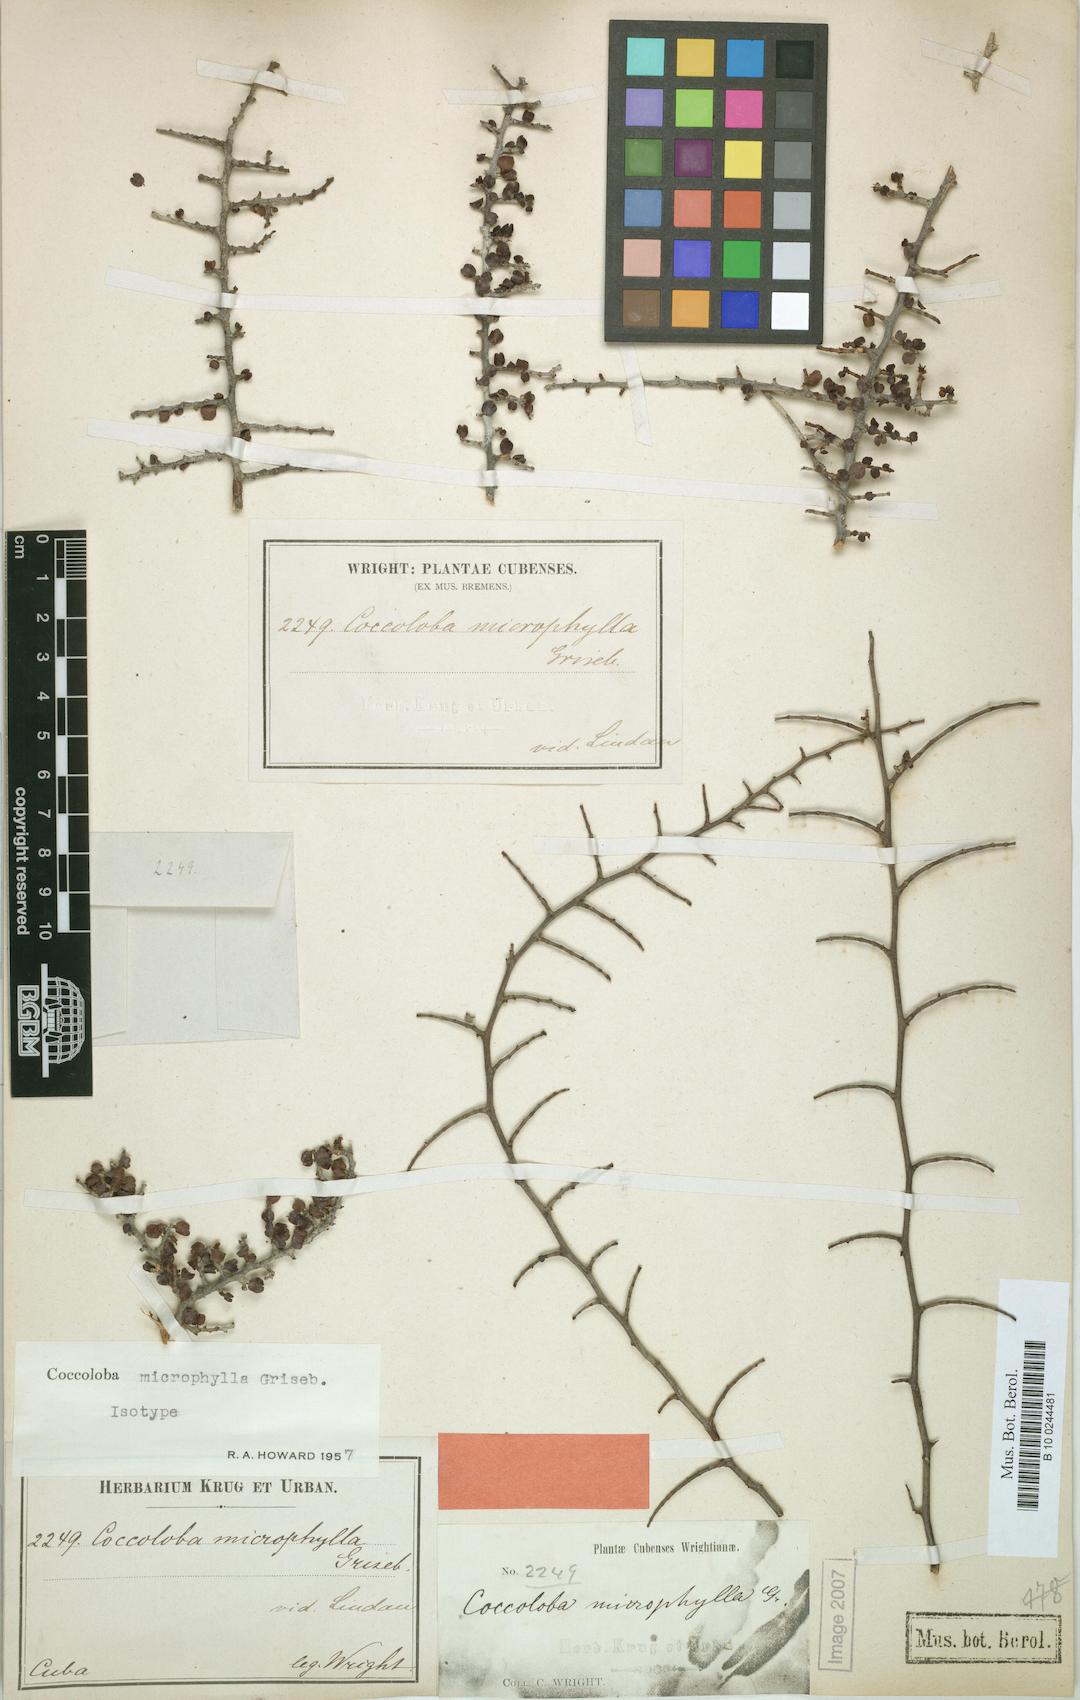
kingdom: Plantae
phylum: Tracheophyta
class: Magnoliopsida
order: Caryophyllales
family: Polygonaceae
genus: Coccoloba
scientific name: Coccoloba microphylla
